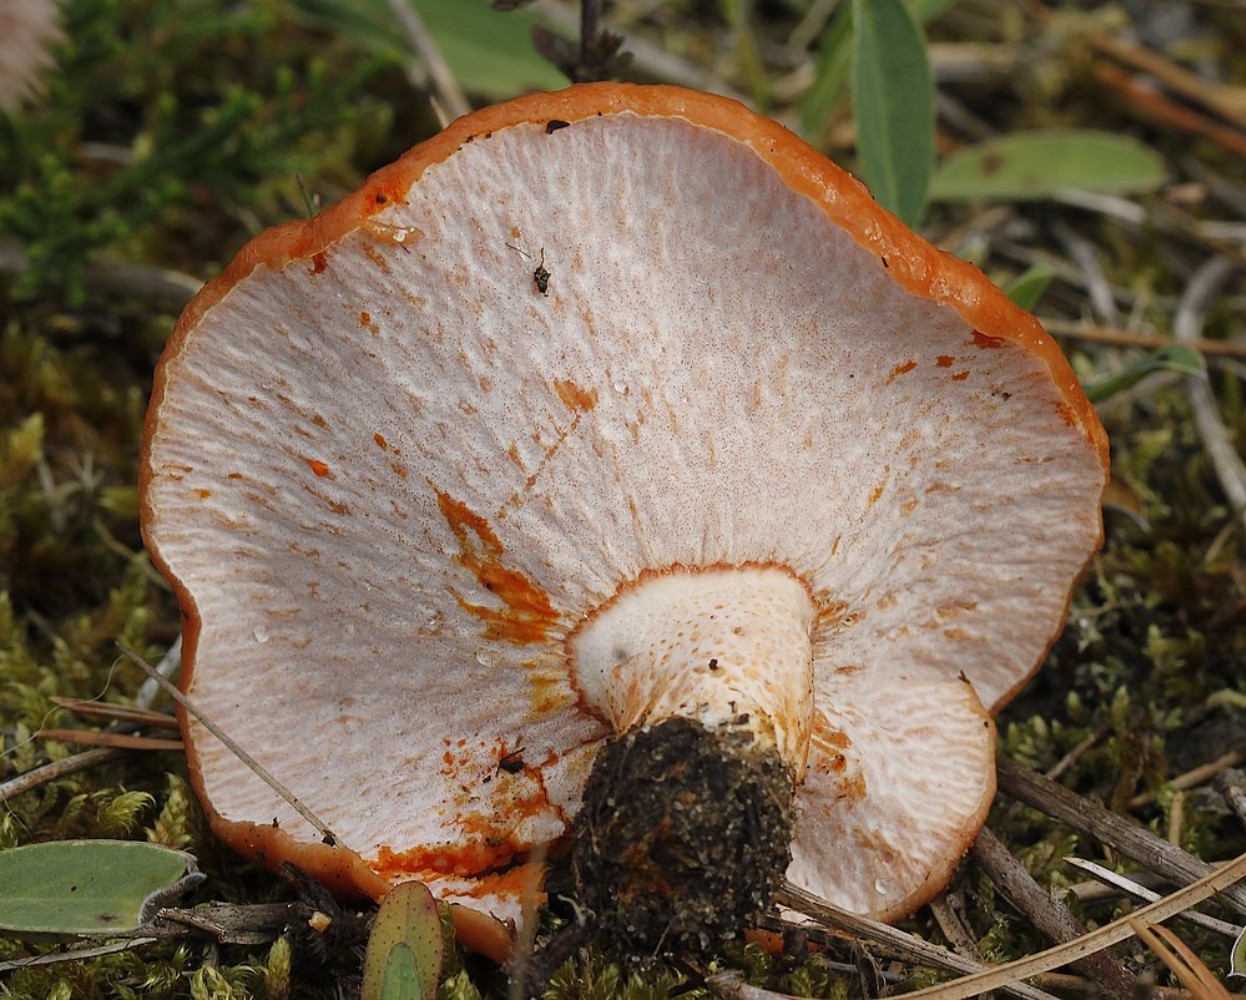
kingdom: Fungi
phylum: Ascomycota
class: Sordariomycetes
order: Hypocreales
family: Hypocreaceae
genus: Hypomyces
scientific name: Hypomyces lateritius
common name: mælkehat-snylteskorpe
